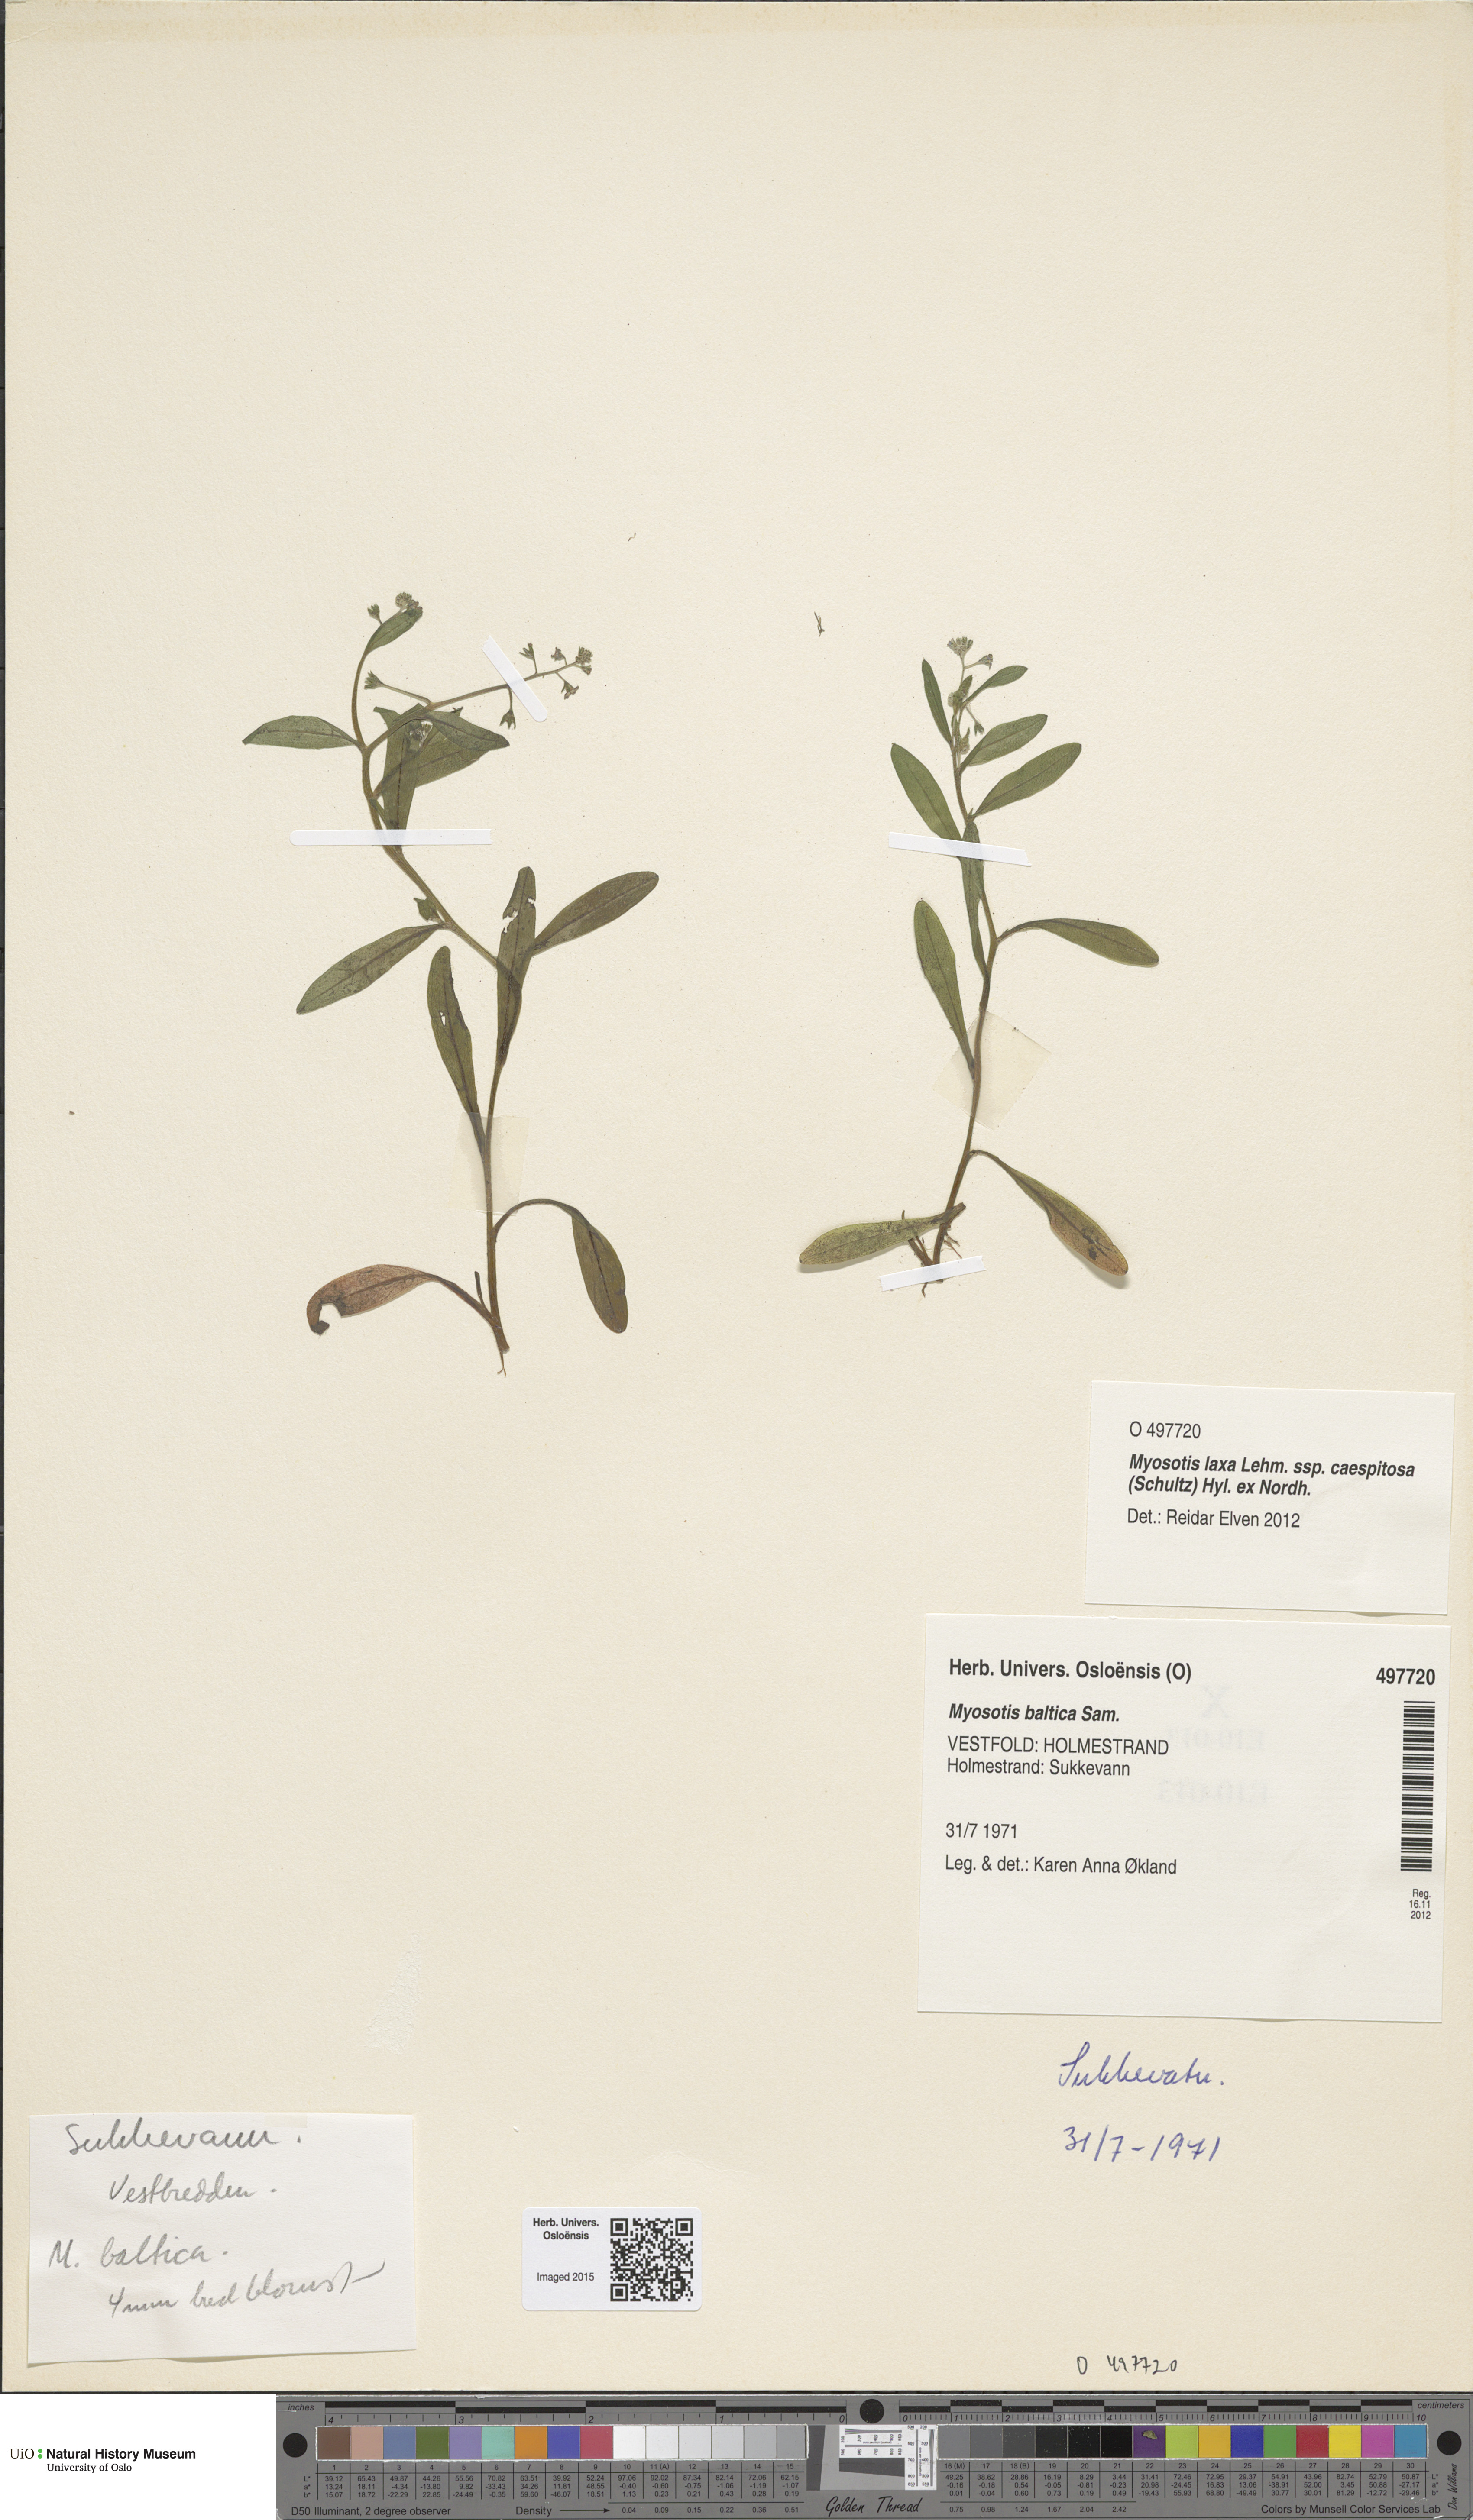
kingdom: Plantae
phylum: Tracheophyta
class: Magnoliopsida
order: Boraginales
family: Boraginaceae
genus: Myosotis
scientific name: Myosotis laxa
